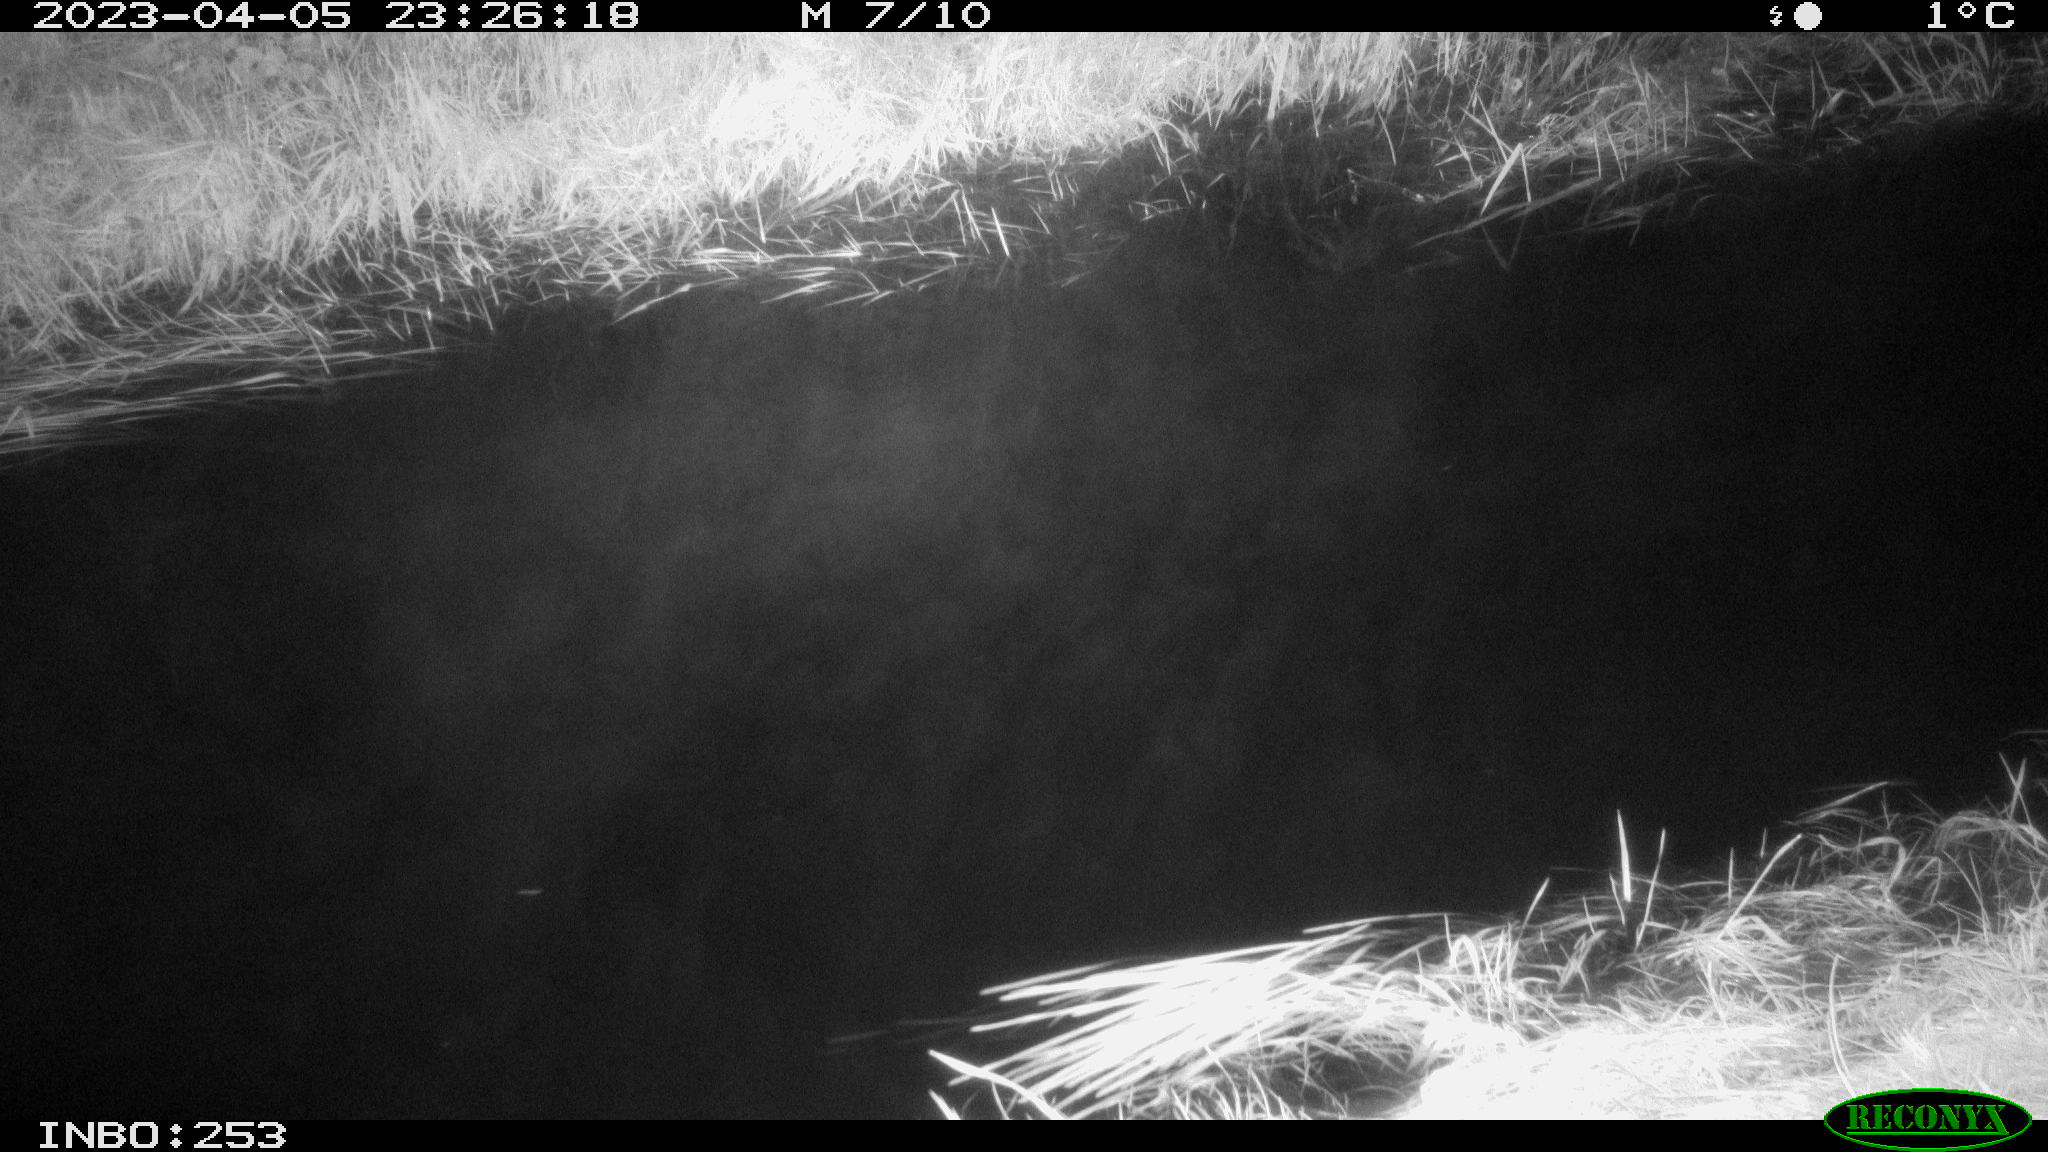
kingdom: Animalia
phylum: Chordata
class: Aves
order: Anseriformes
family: Anatidae
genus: Anas
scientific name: Anas
